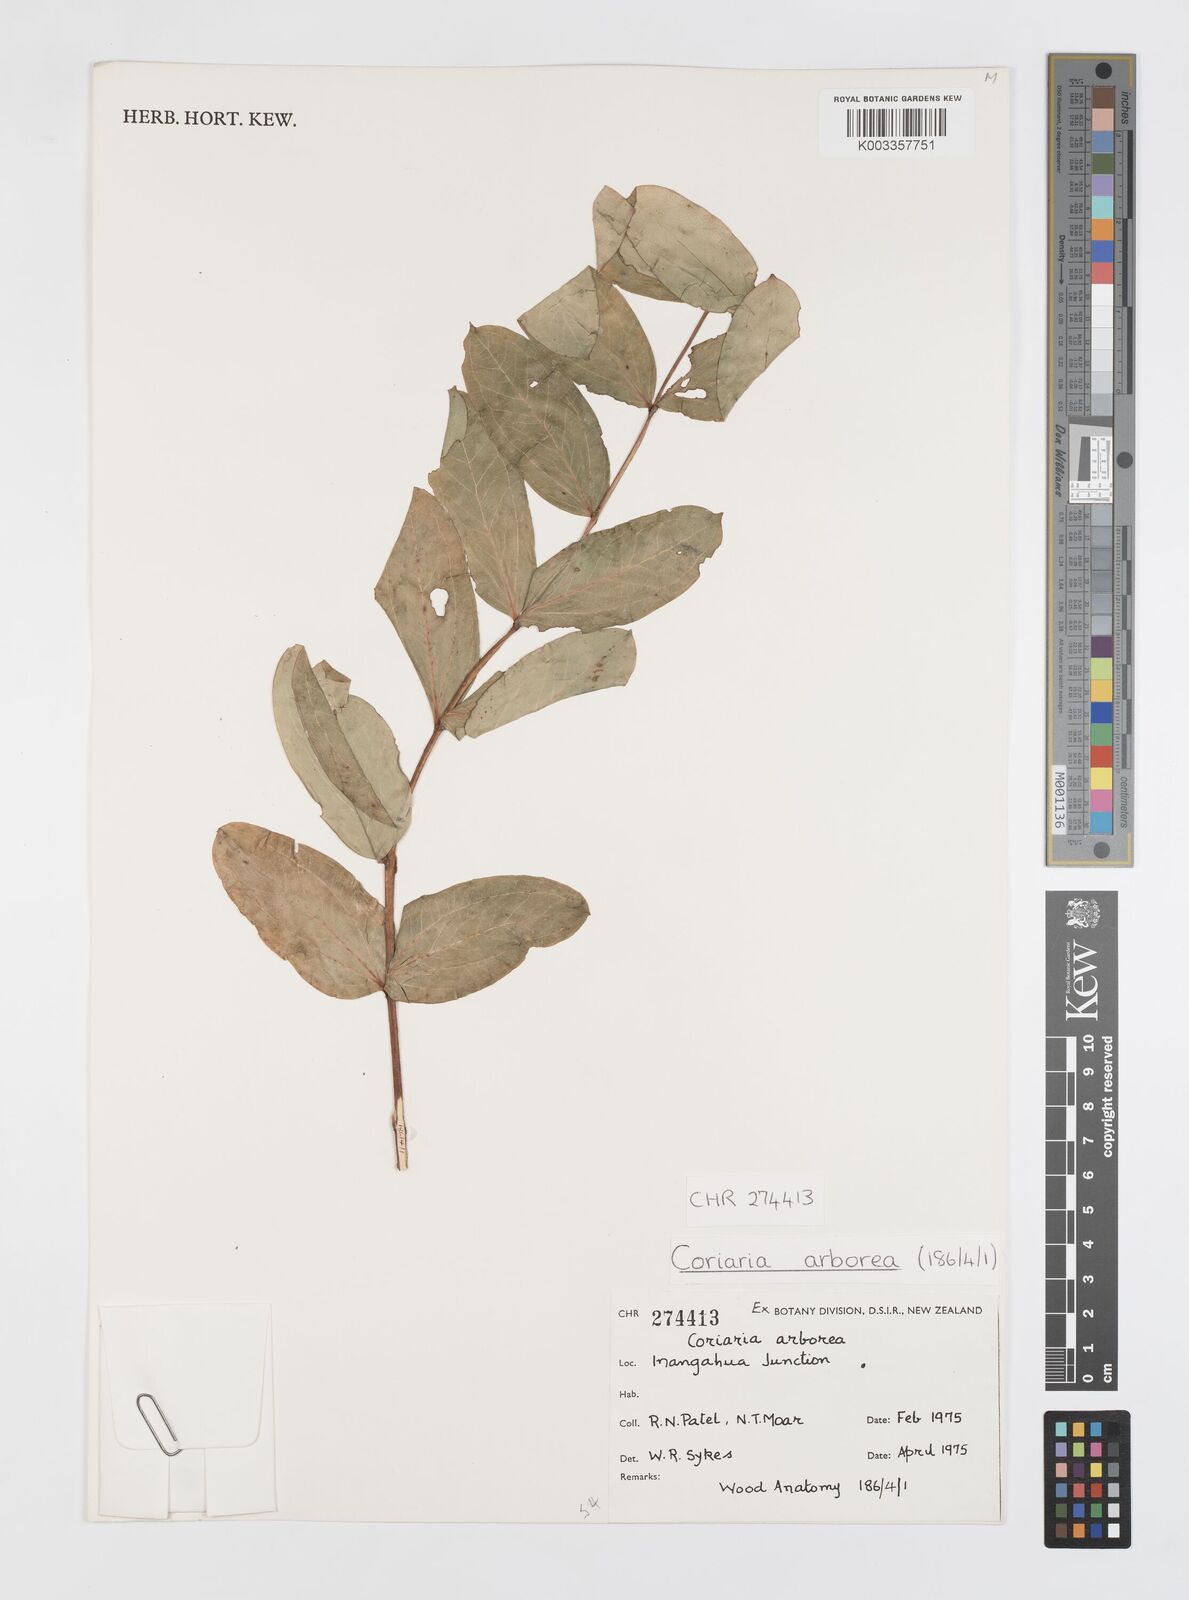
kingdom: Plantae
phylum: Tracheophyta
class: Magnoliopsida
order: Cucurbitales
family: Coriariaceae
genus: Coriaria
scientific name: Coriaria arborea
